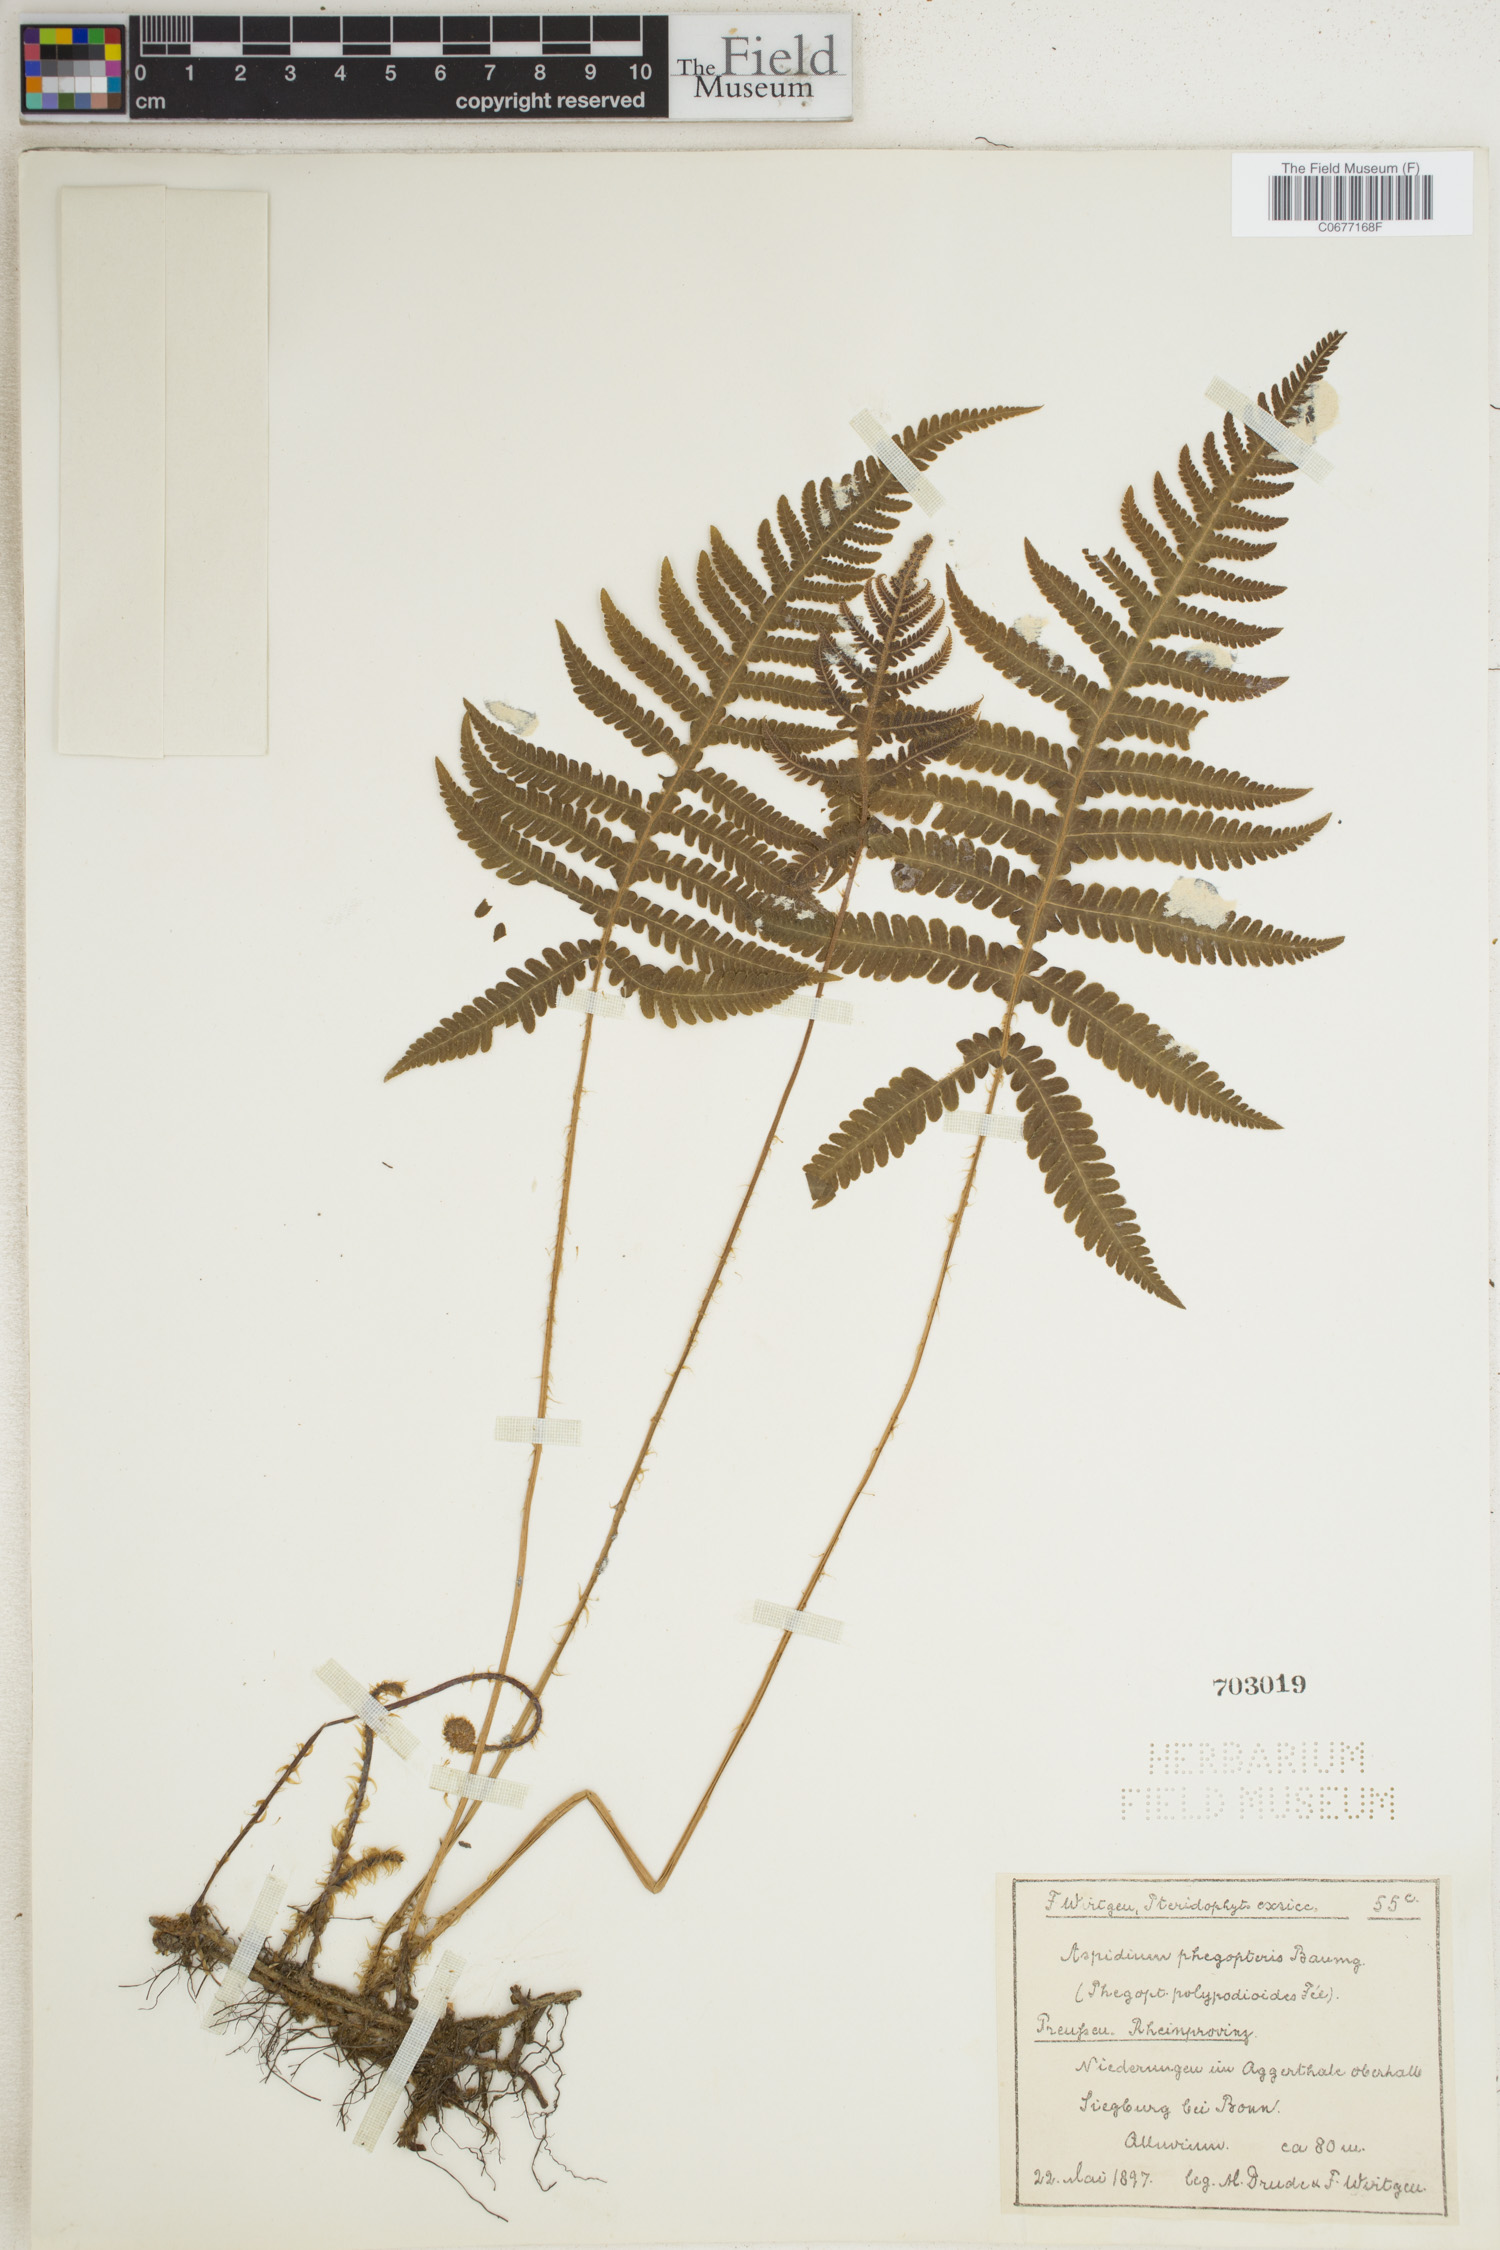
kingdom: Plantae
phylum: Tracheophyta
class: Polypodiopsida
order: Polypodiales
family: Thelypteridaceae
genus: Phegopteris
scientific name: Phegopteris connectilis
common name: Beech fern
